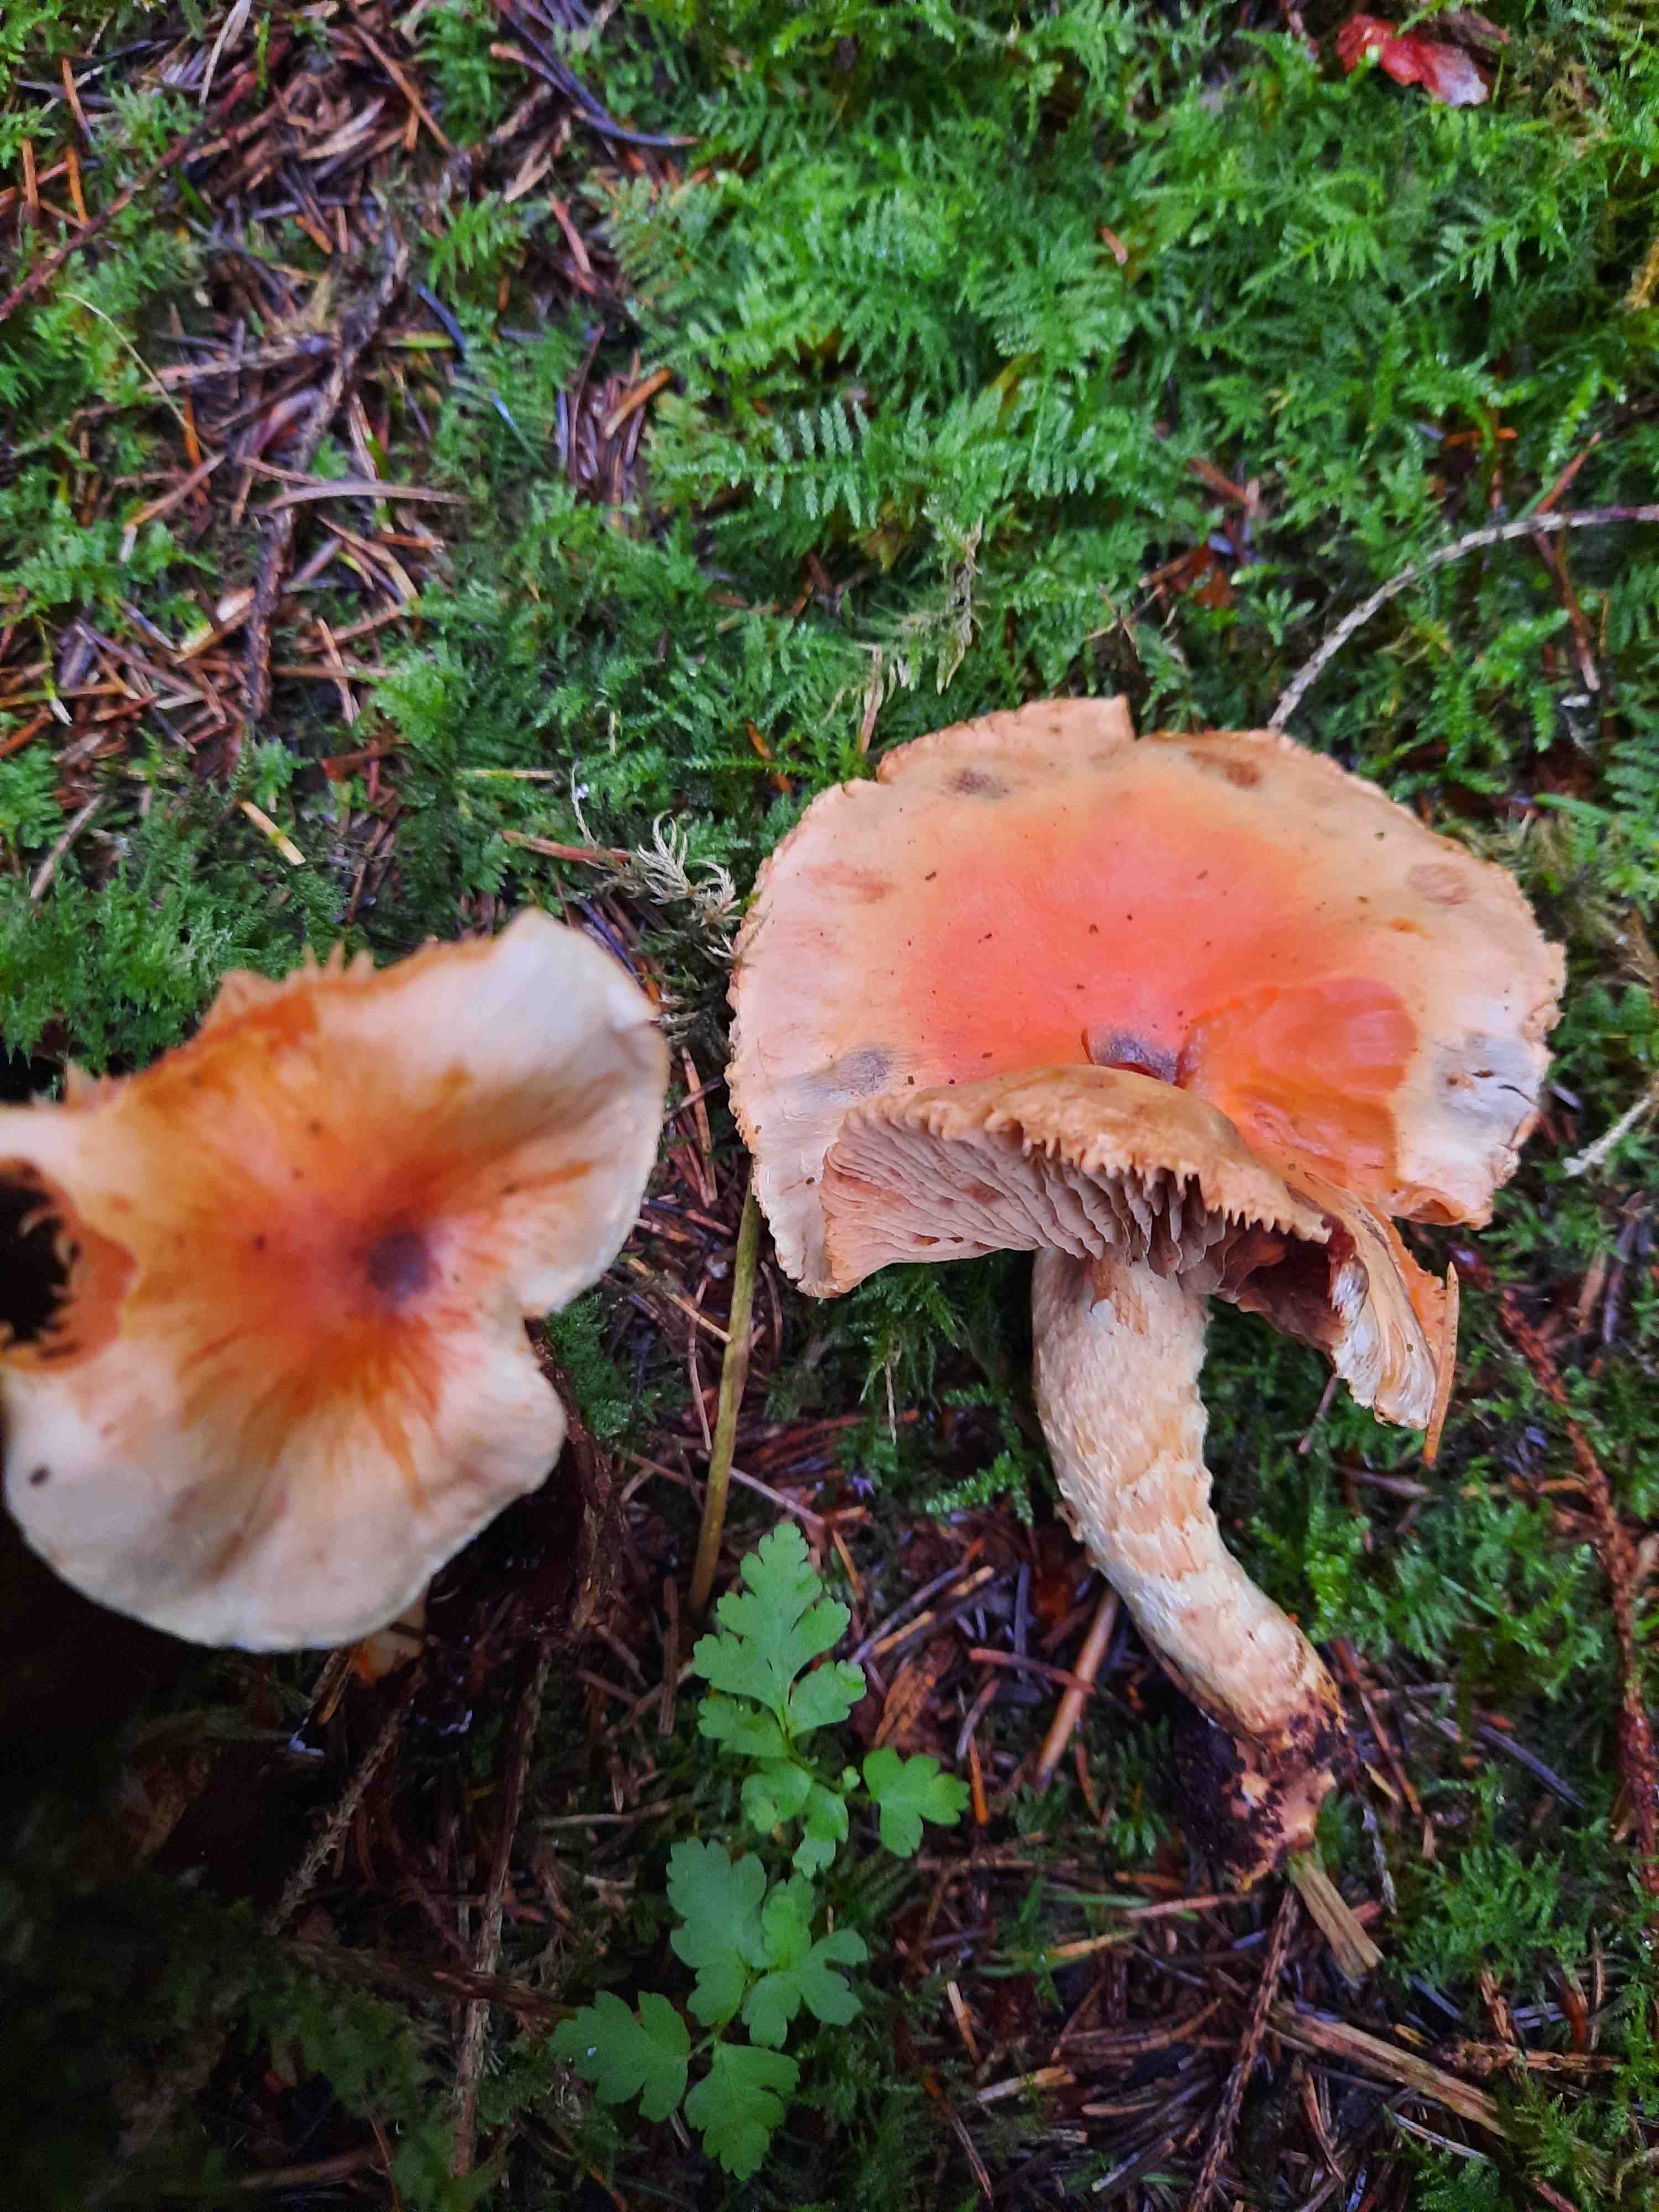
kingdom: Fungi
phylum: Basidiomycota
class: Agaricomycetes
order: Agaricales
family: Strophariaceae
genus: Pyrrhulomyces
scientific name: Pyrrhulomyces astragalinus
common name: safran-skælhat
